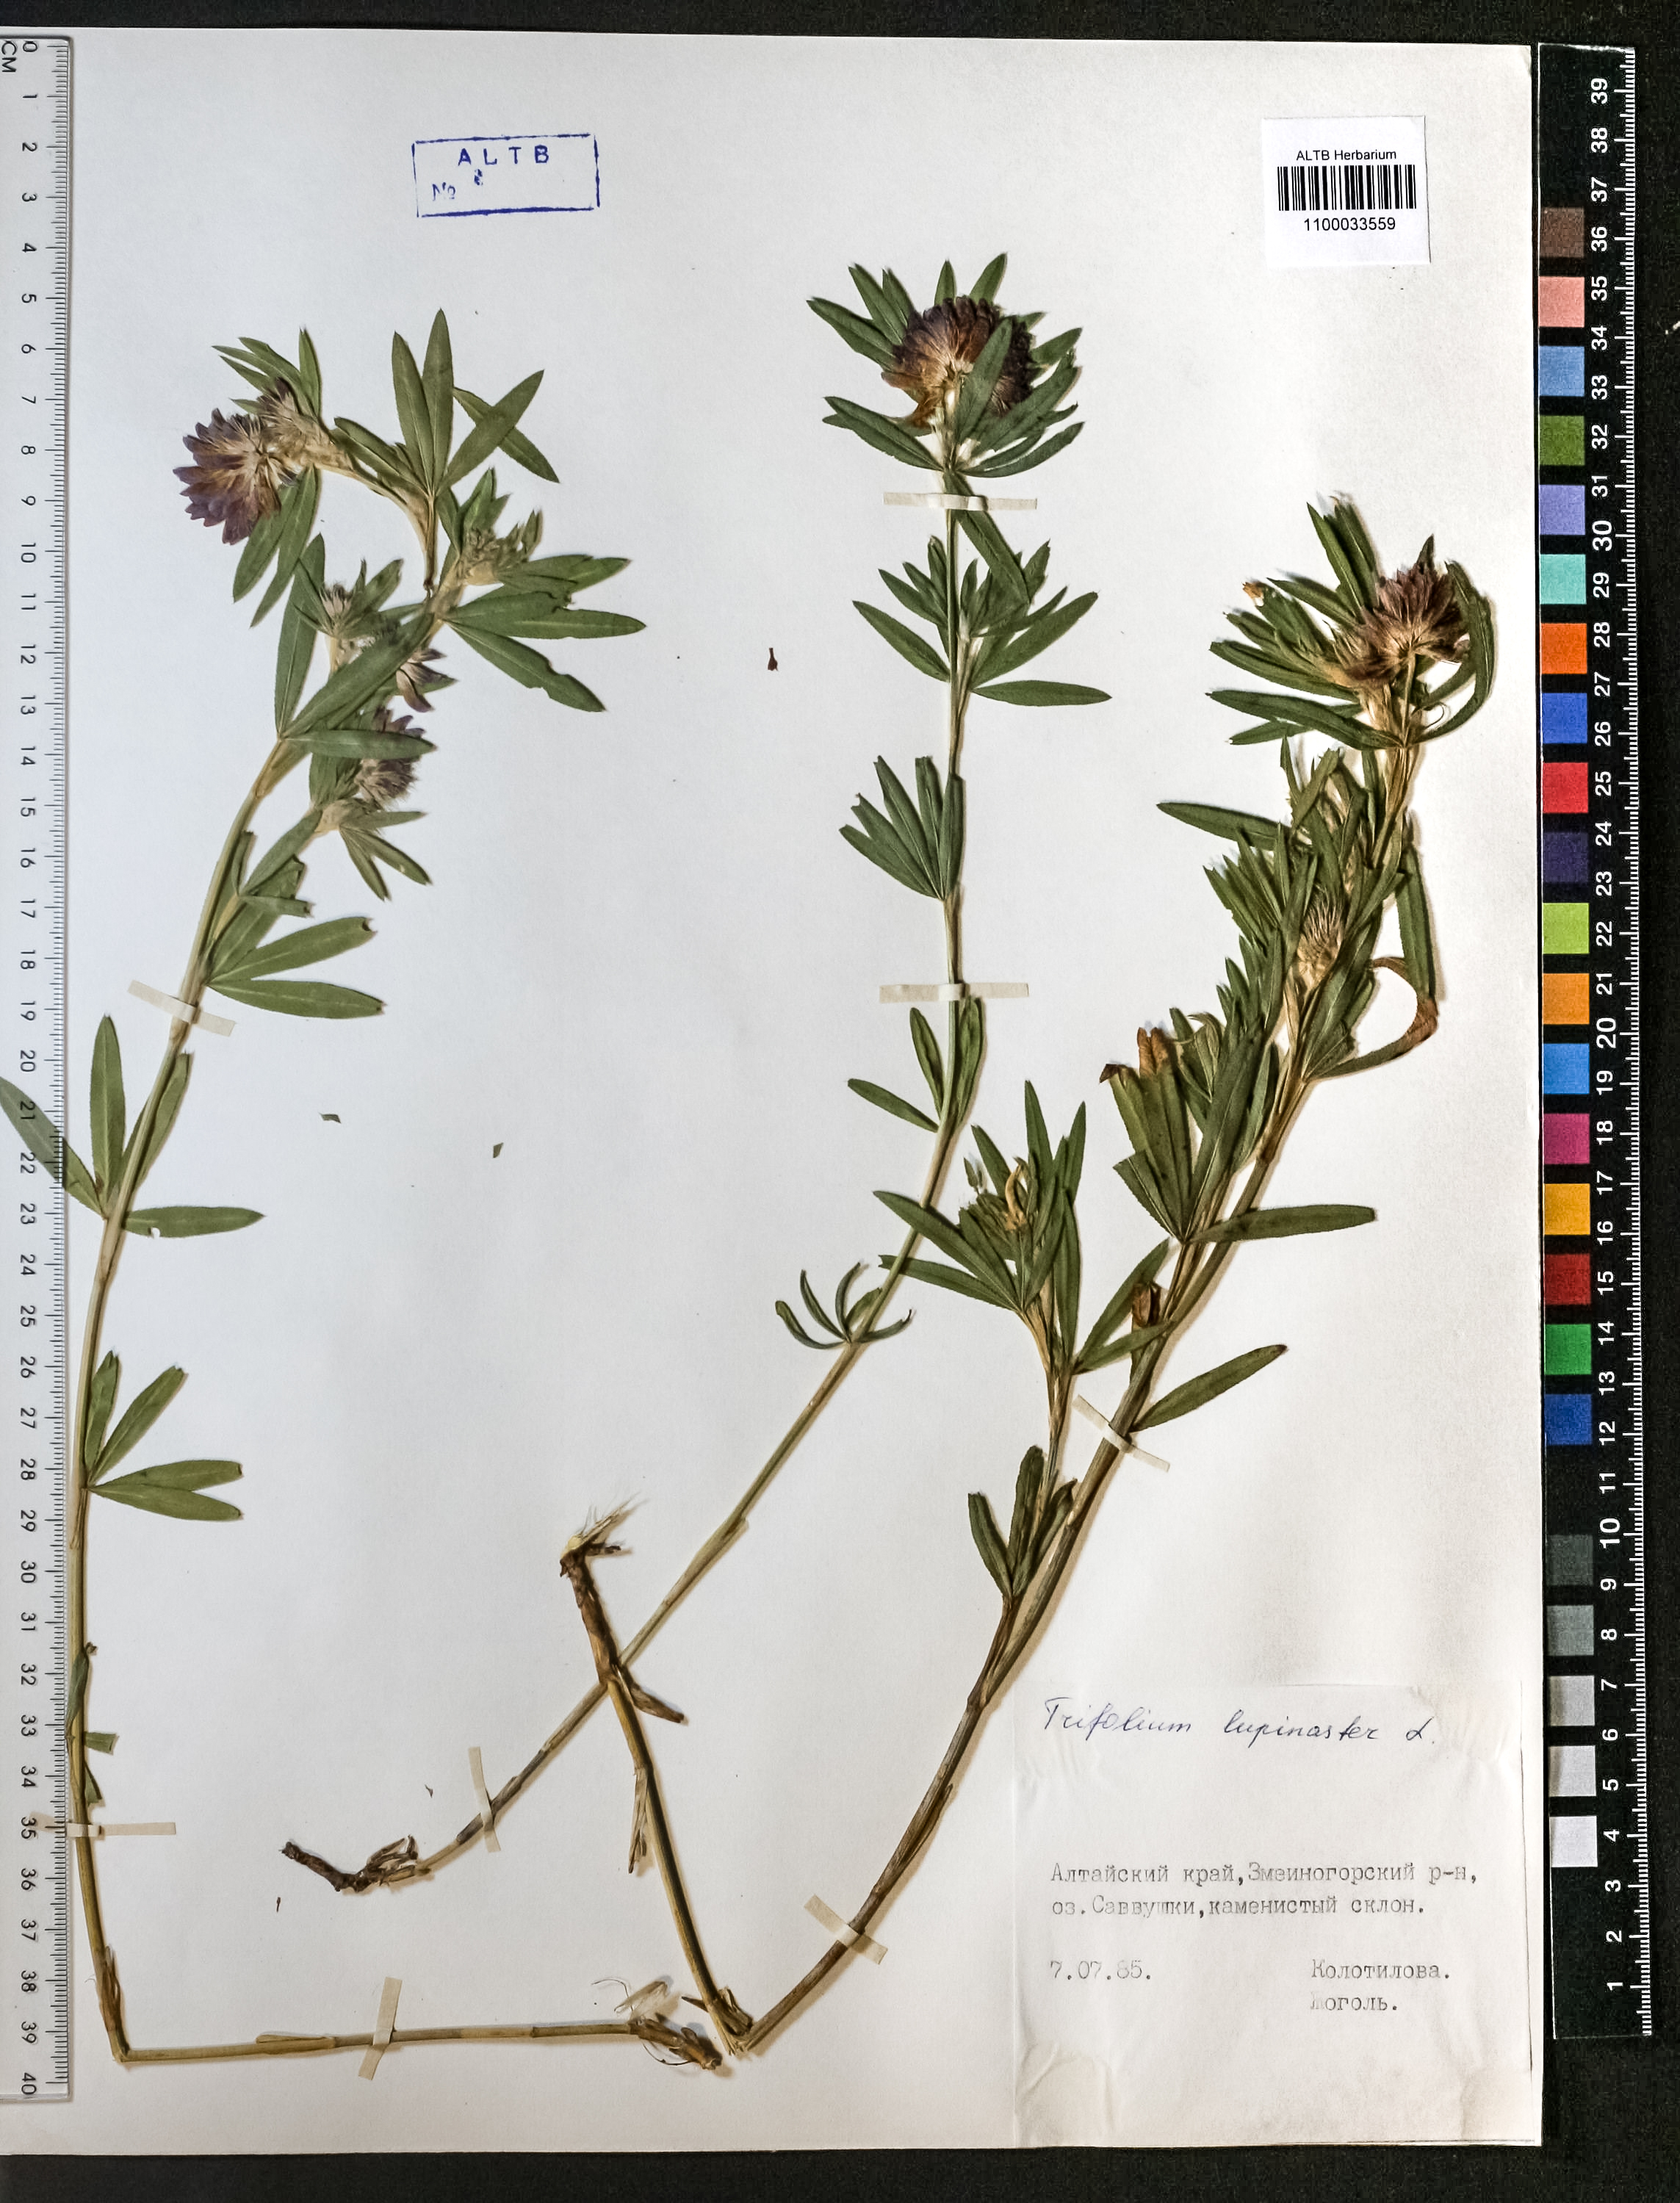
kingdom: Plantae
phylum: Tracheophyta
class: Magnoliopsida
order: Fabales
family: Fabaceae
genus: Trifolium
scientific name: Trifolium lupinaster
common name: Lupine clover
